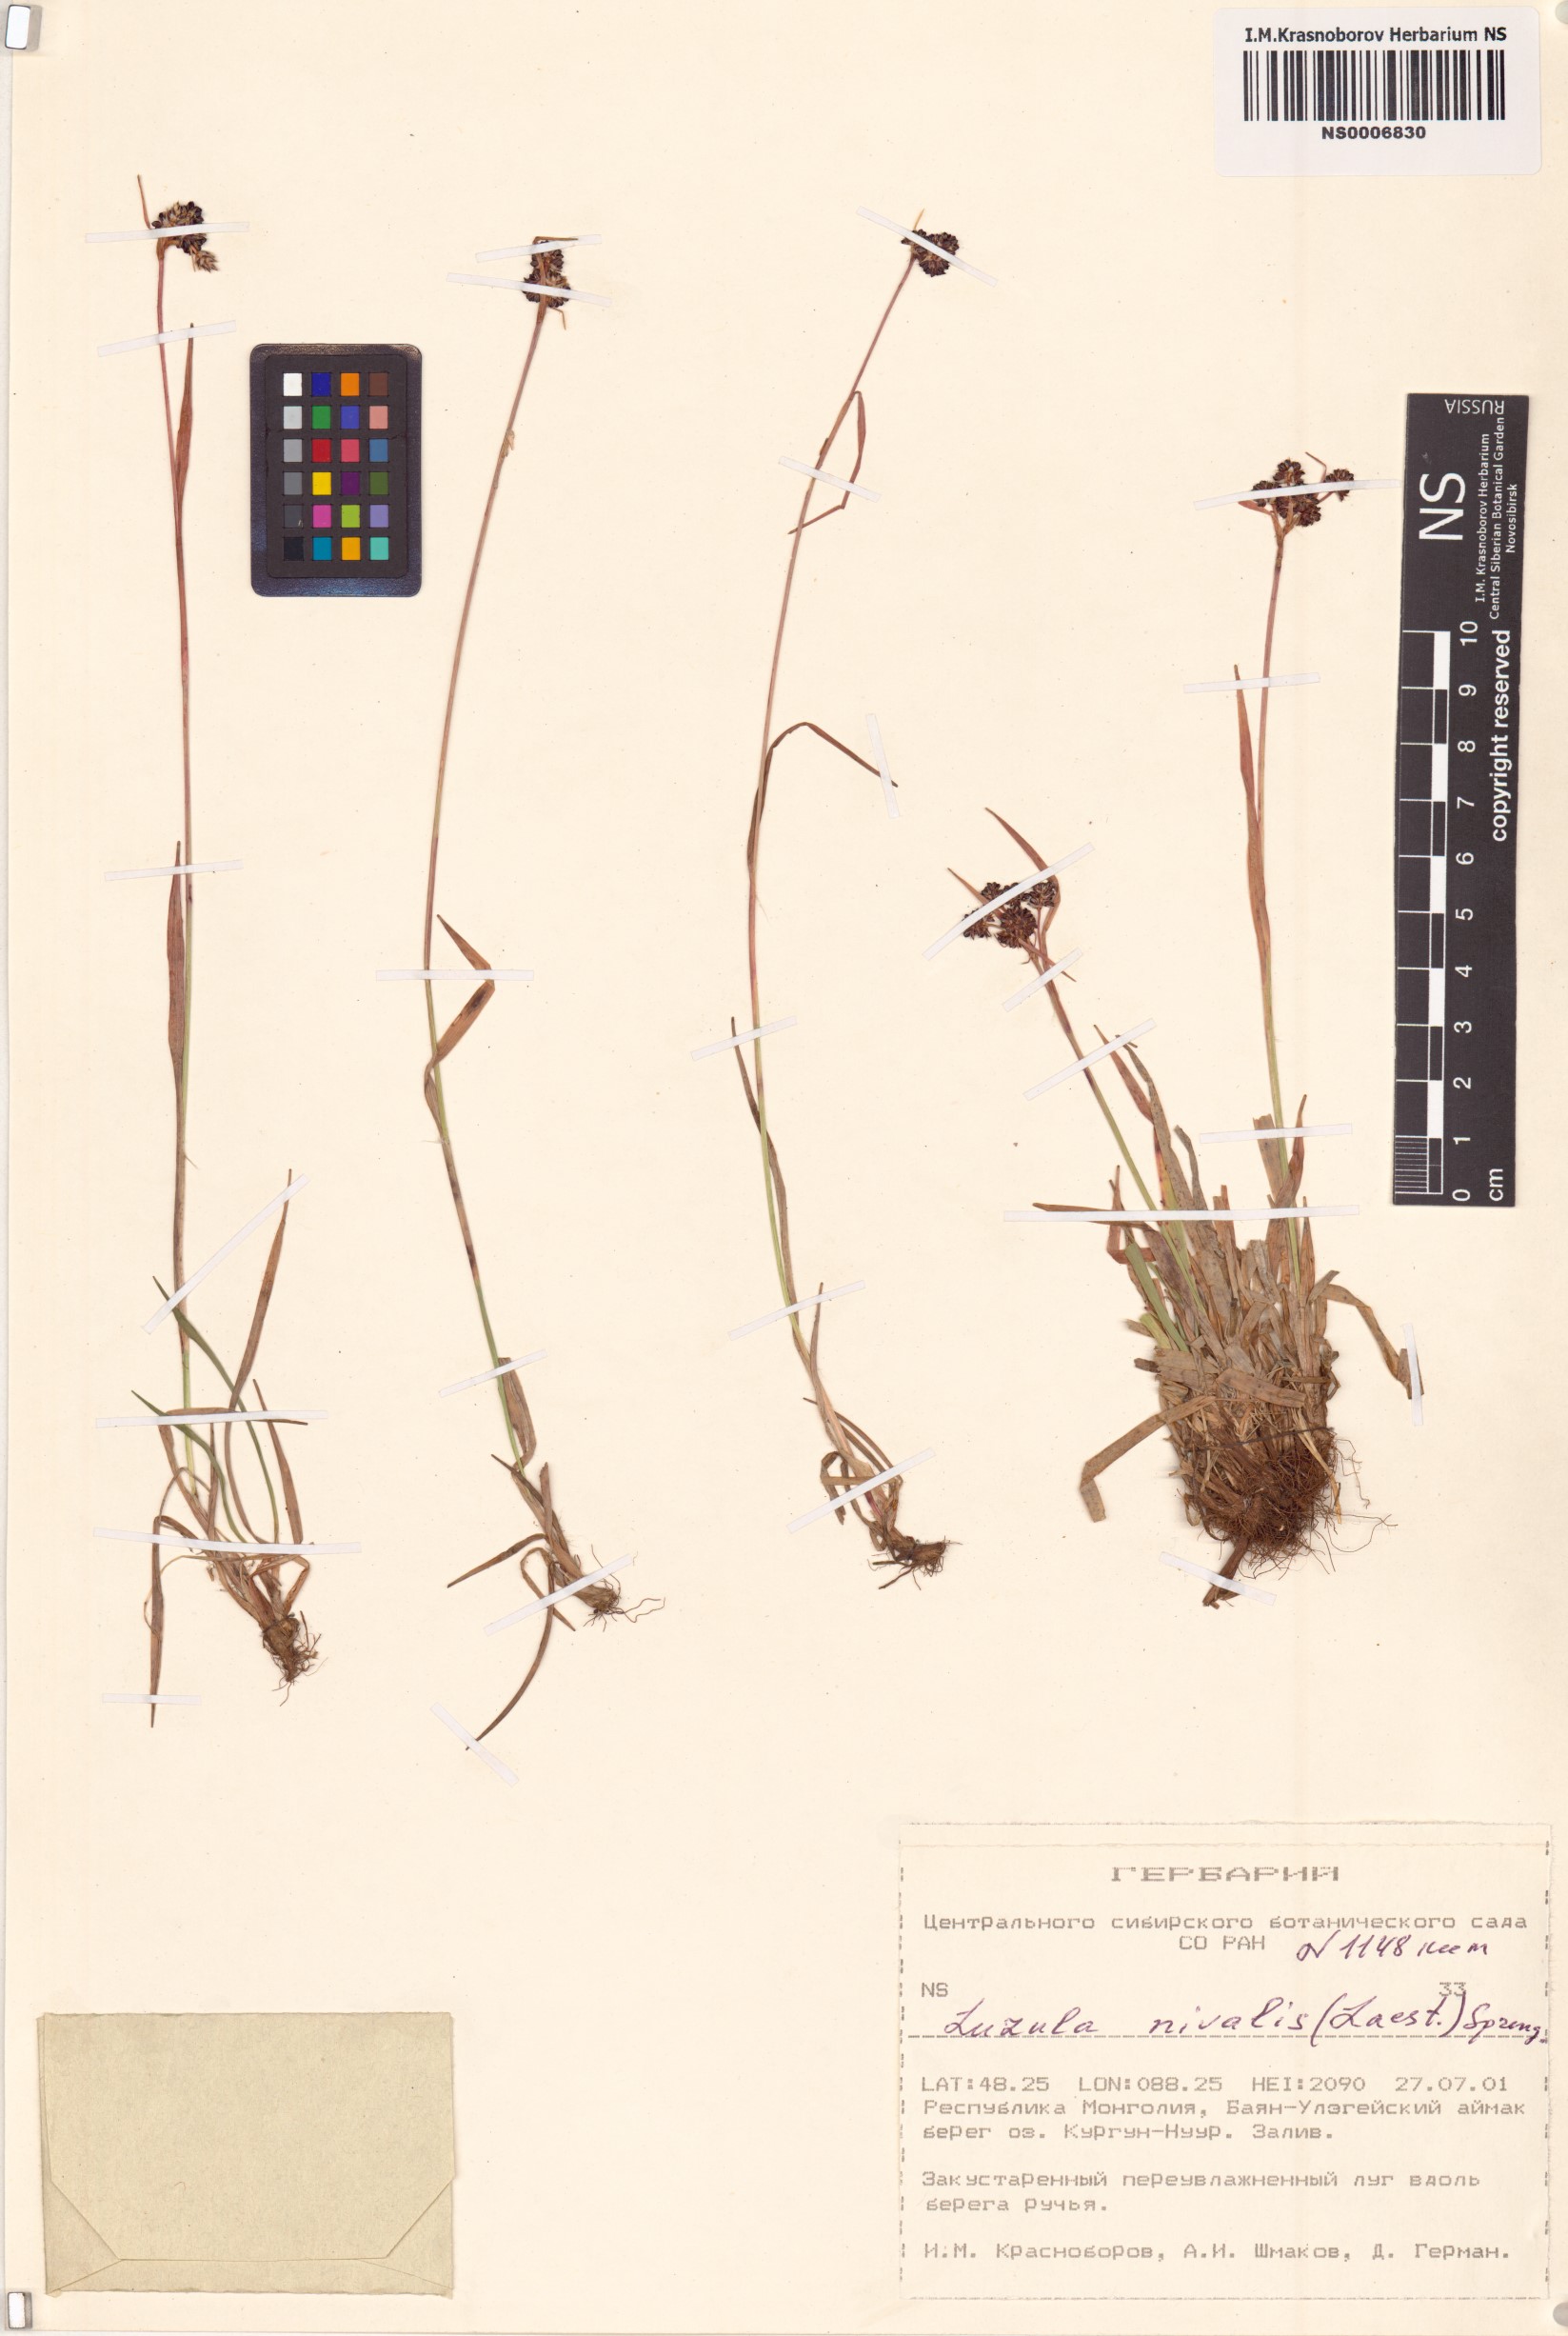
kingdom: Plantae
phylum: Tracheophyta
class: Liliopsida
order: Poales
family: Juncaceae
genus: Luzula
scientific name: Luzula nivalis
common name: Arctic woodrush
